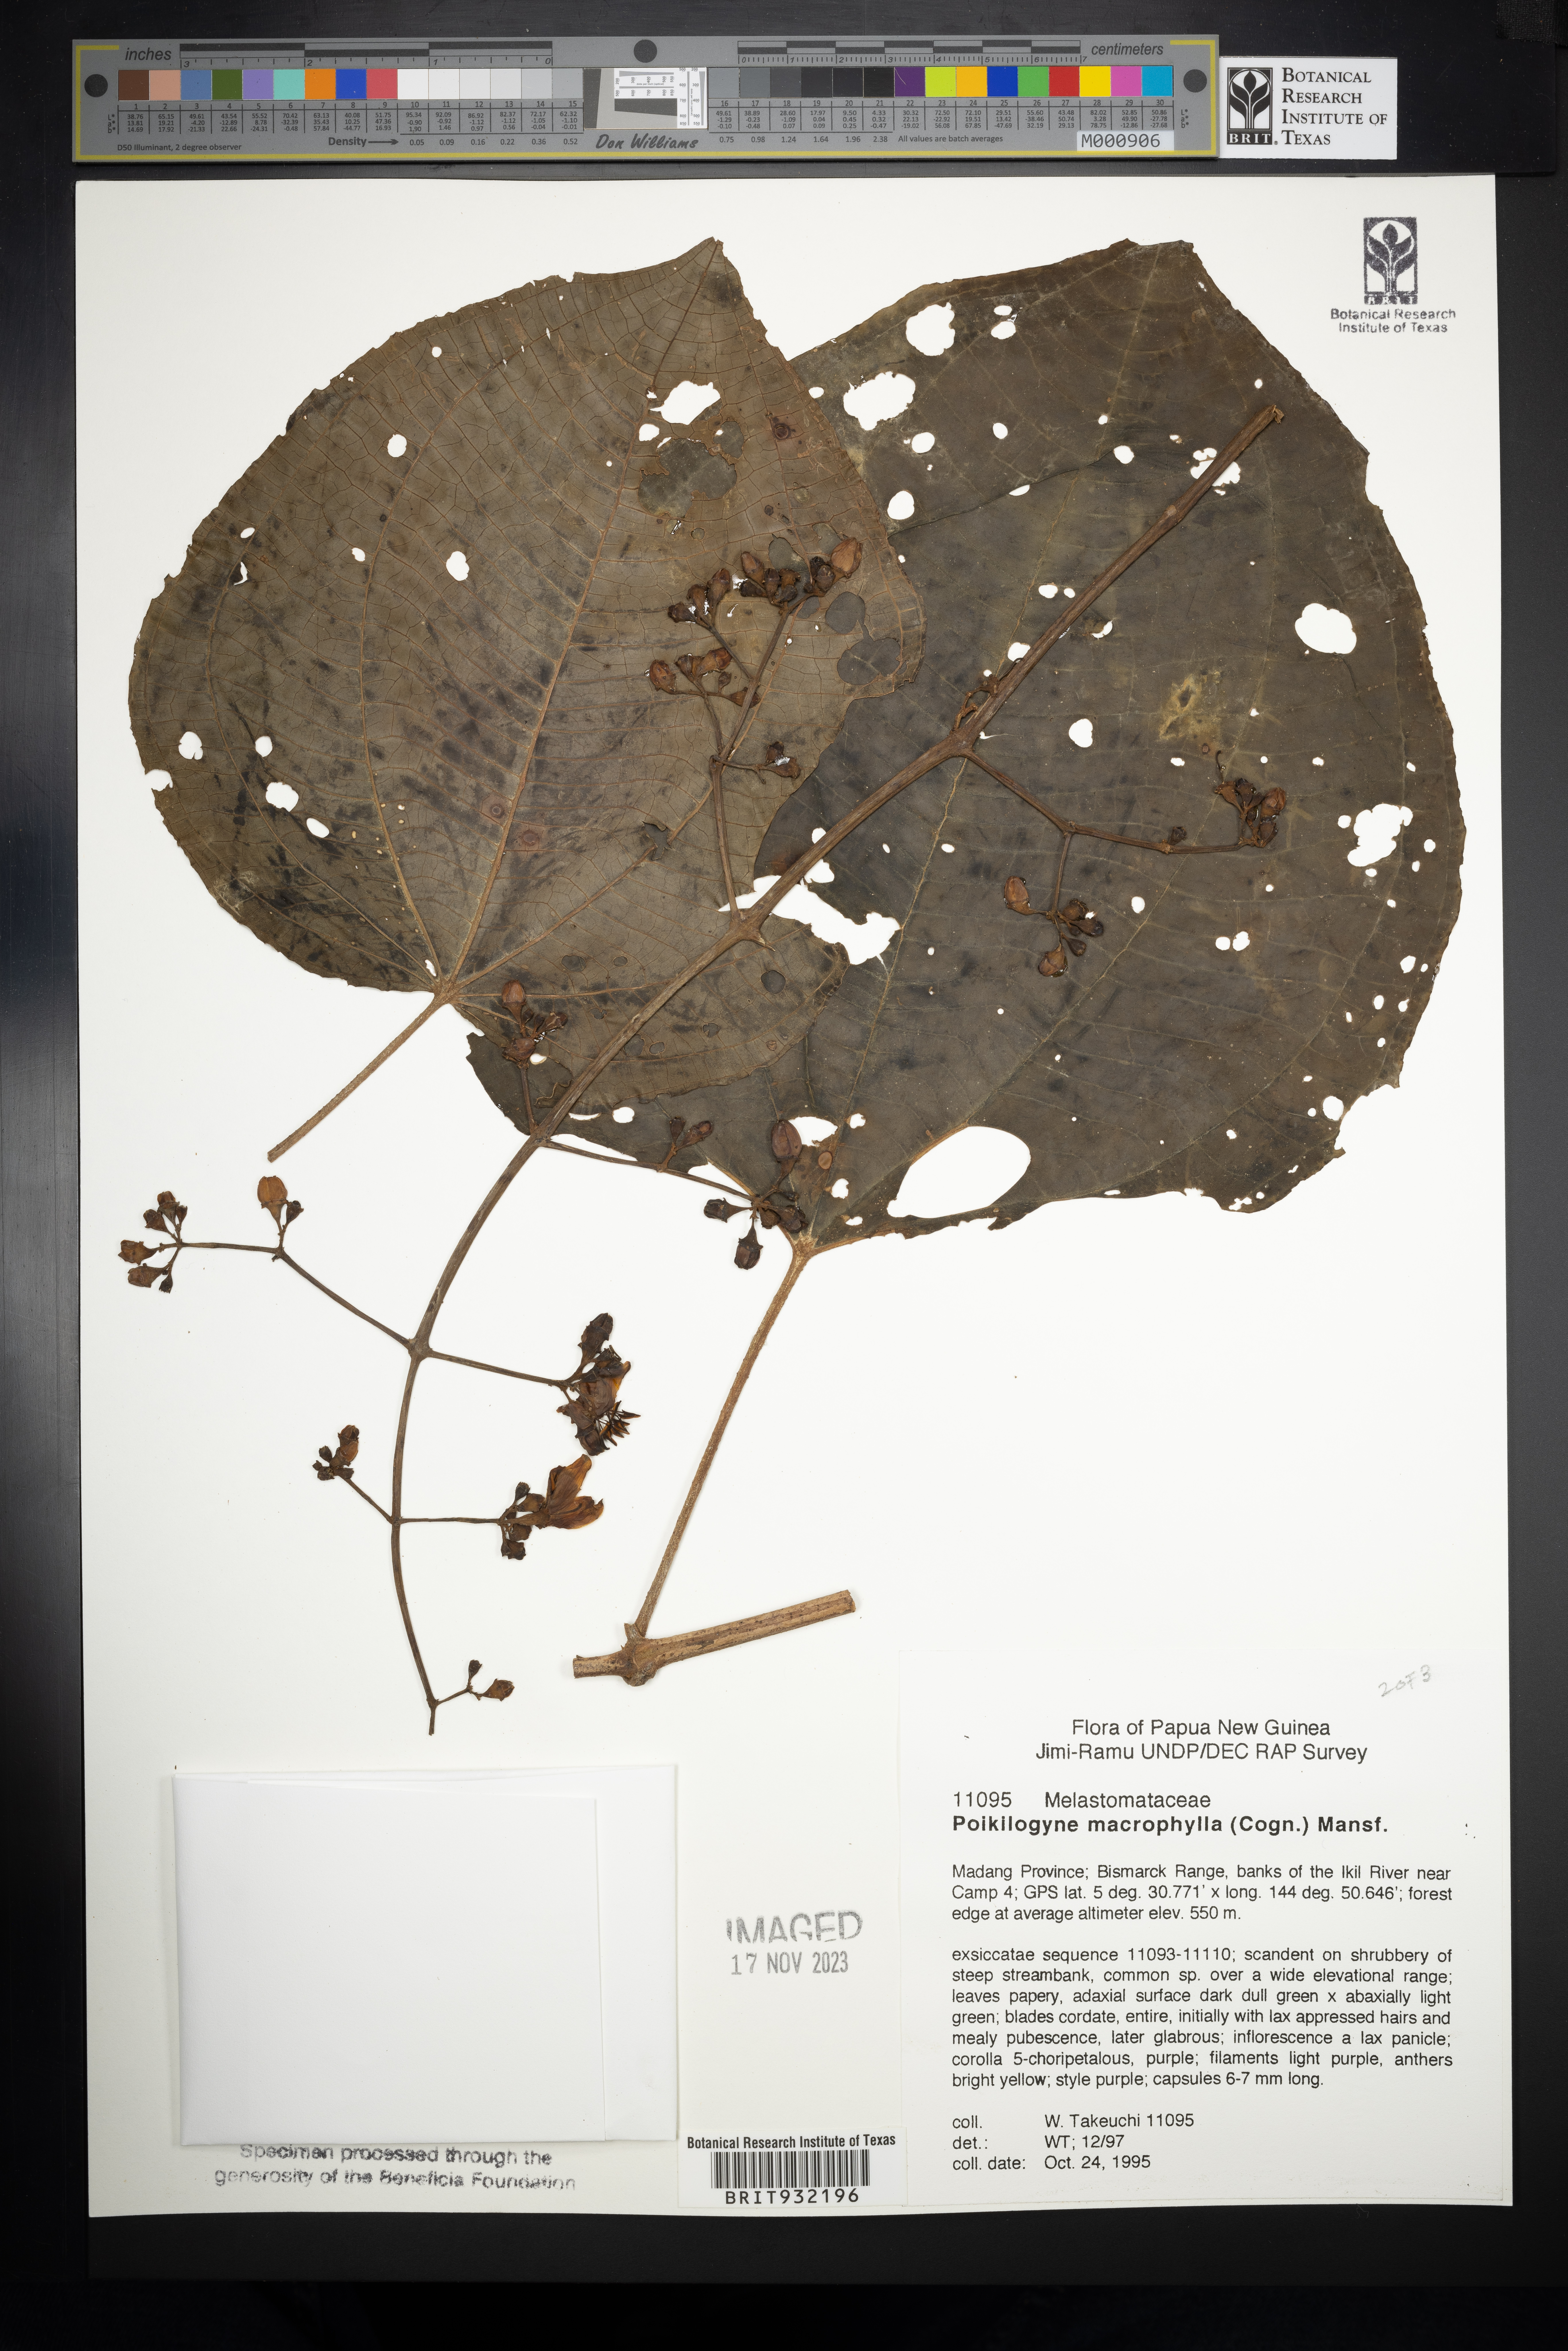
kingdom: Plantae
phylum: Tracheophyta
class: Magnoliopsida
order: Myrtales
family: Melastomataceae
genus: Poikilogyne
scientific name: Poikilogyne
